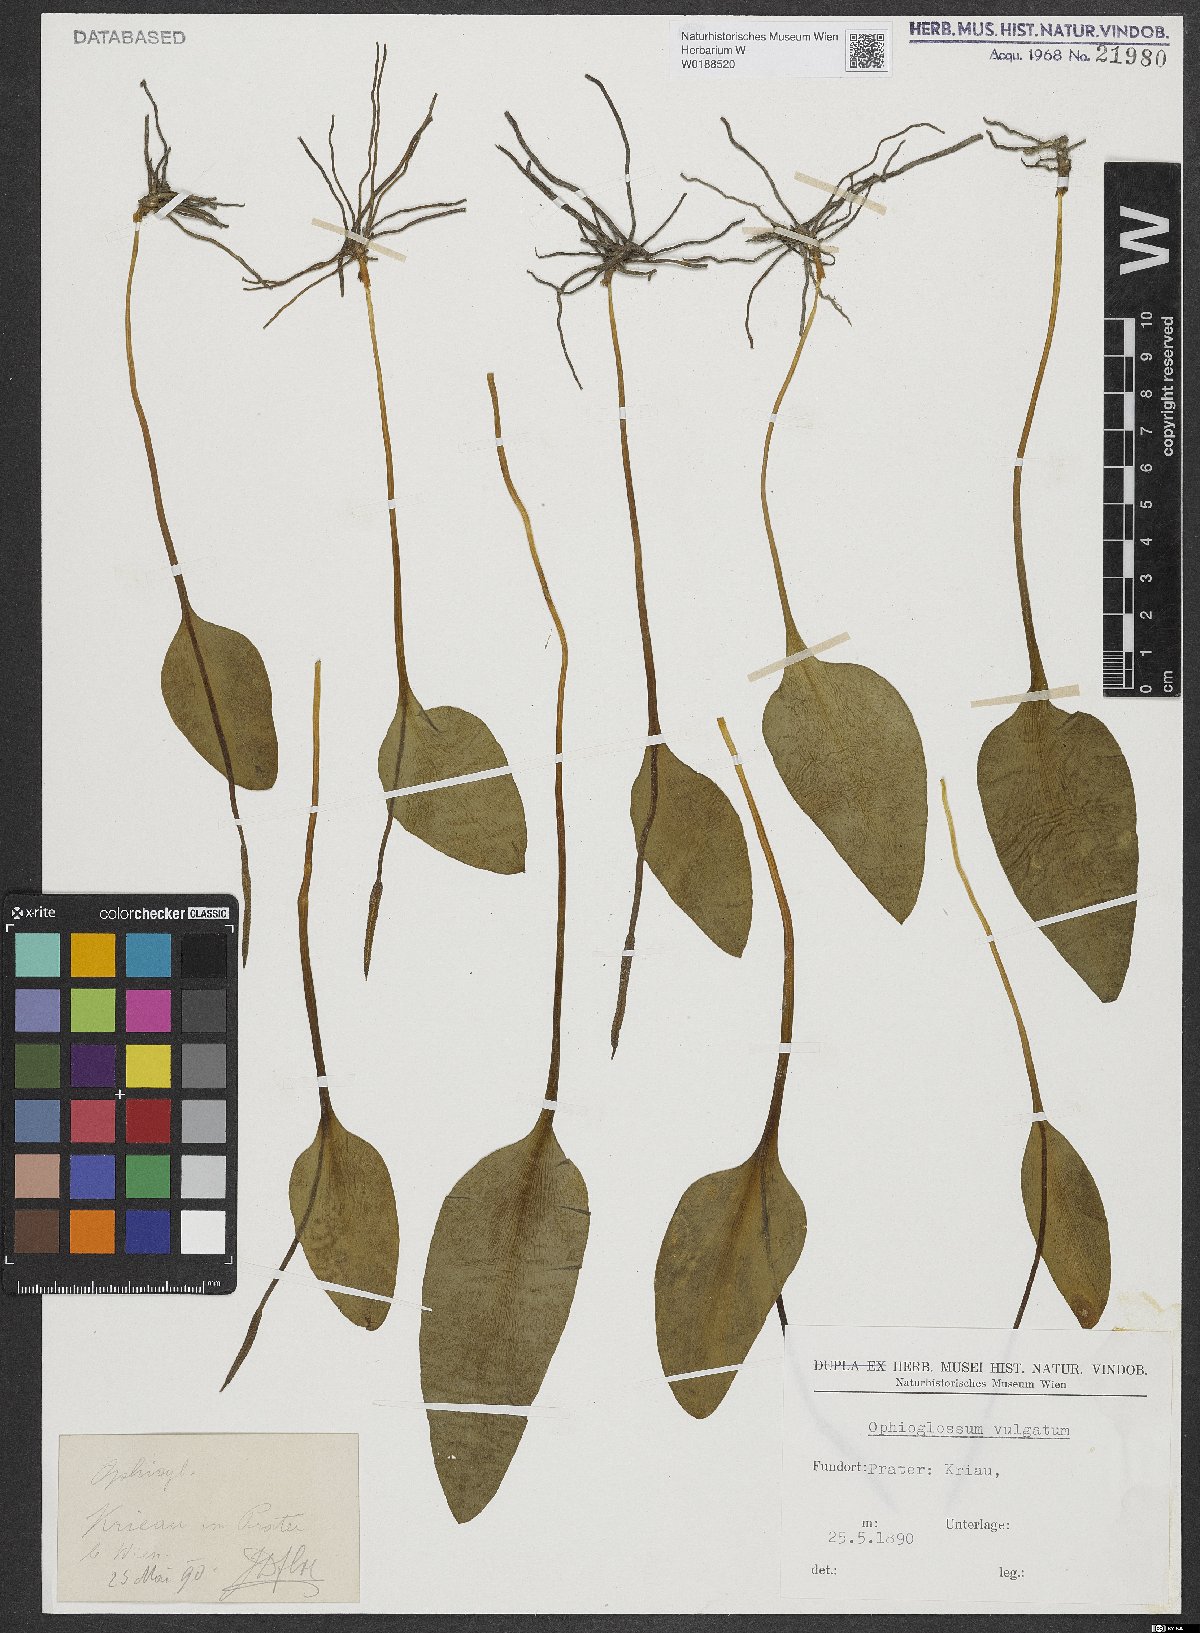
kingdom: Plantae
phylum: Tracheophyta
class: Polypodiopsida
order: Ophioglossales
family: Ophioglossaceae
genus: Ophioglossum
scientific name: Ophioglossum vulgatum
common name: Adder's-tongue
